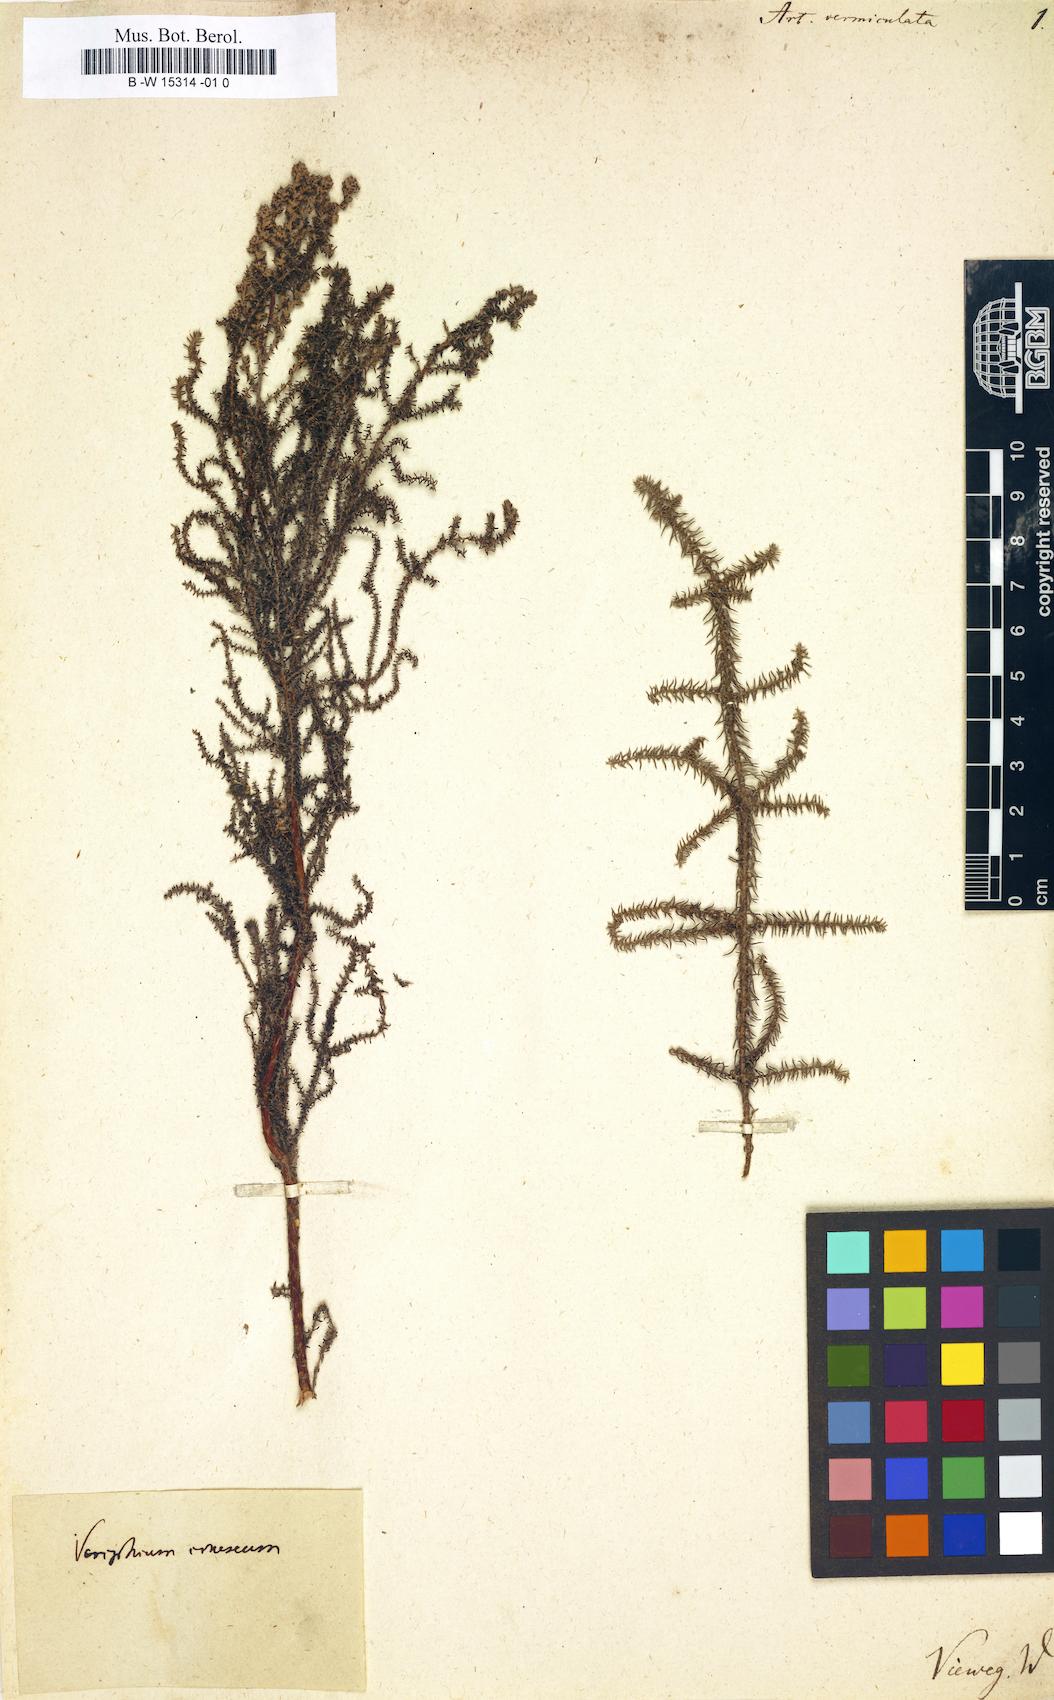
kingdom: Plantae
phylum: Tracheophyta
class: Magnoliopsida
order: Asterales
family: Asteraceae
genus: Seriphium
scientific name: Seriphium plumosum
